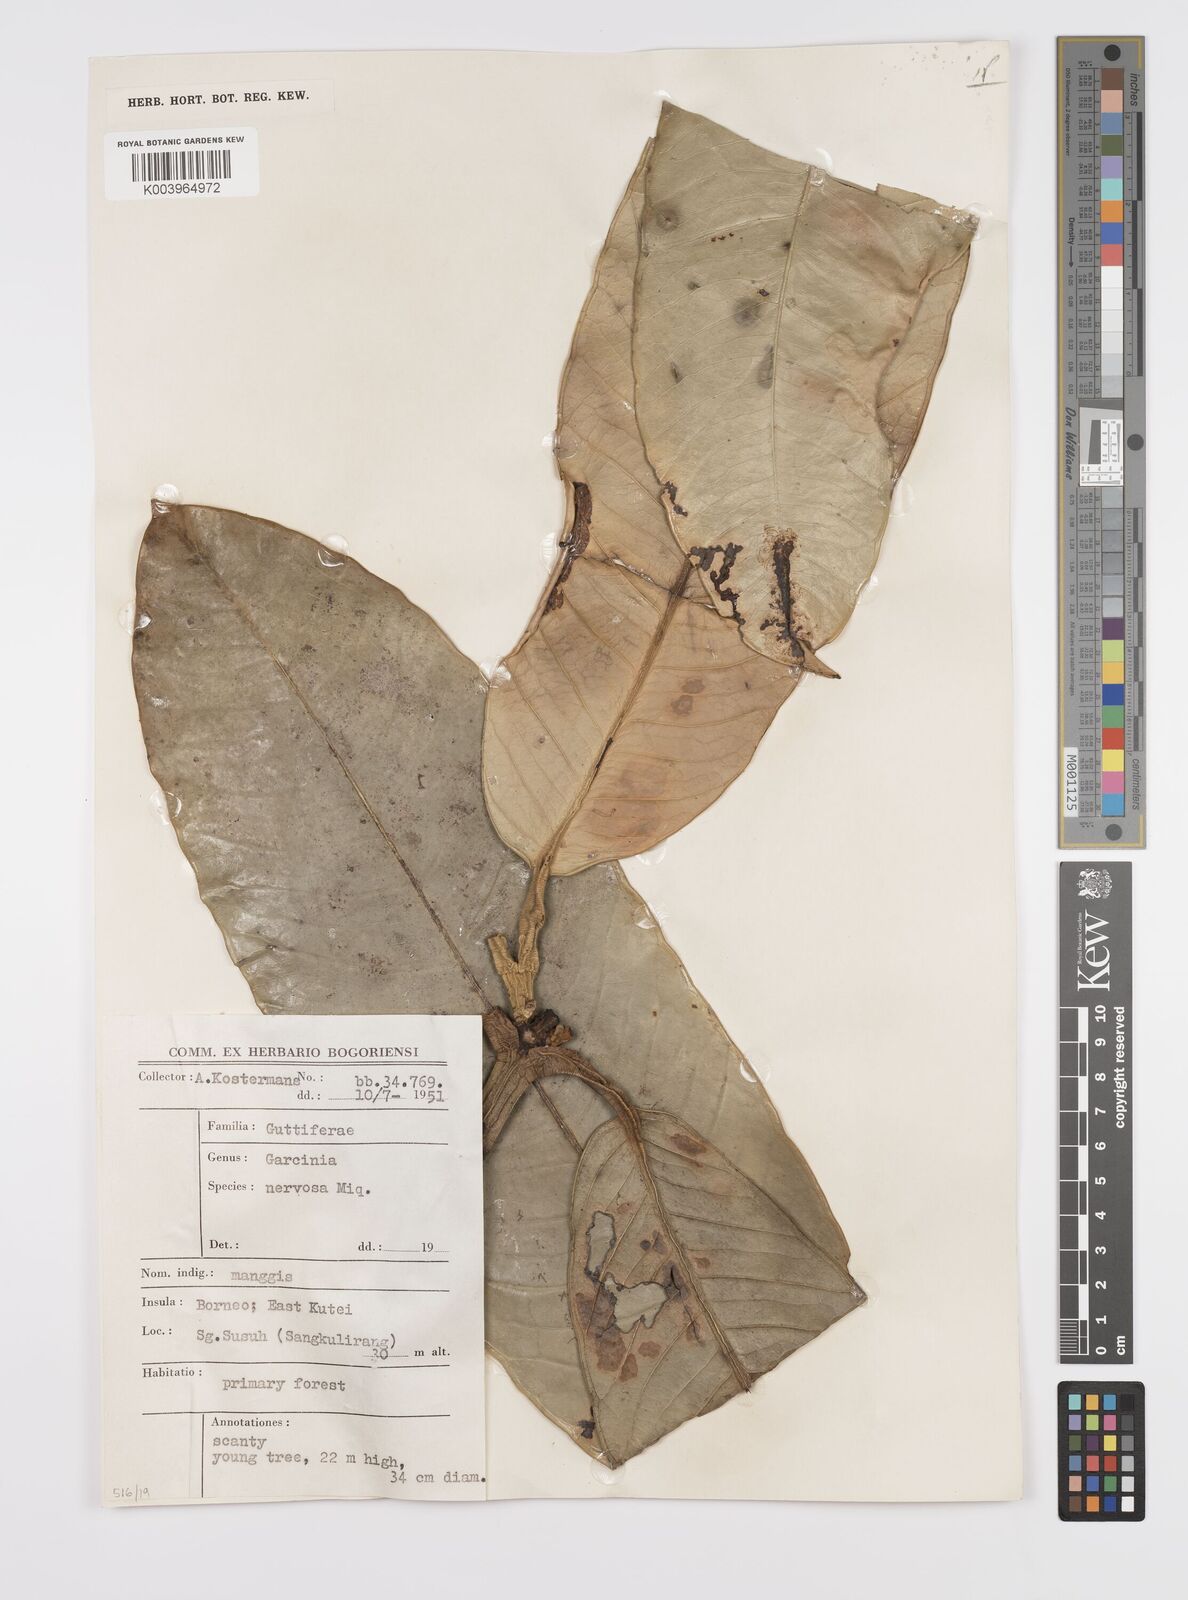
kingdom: Plantae
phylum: Tracheophyta
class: Magnoliopsida
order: Malpighiales
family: Clusiaceae
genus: Garcinia
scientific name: Garcinia nervosa
